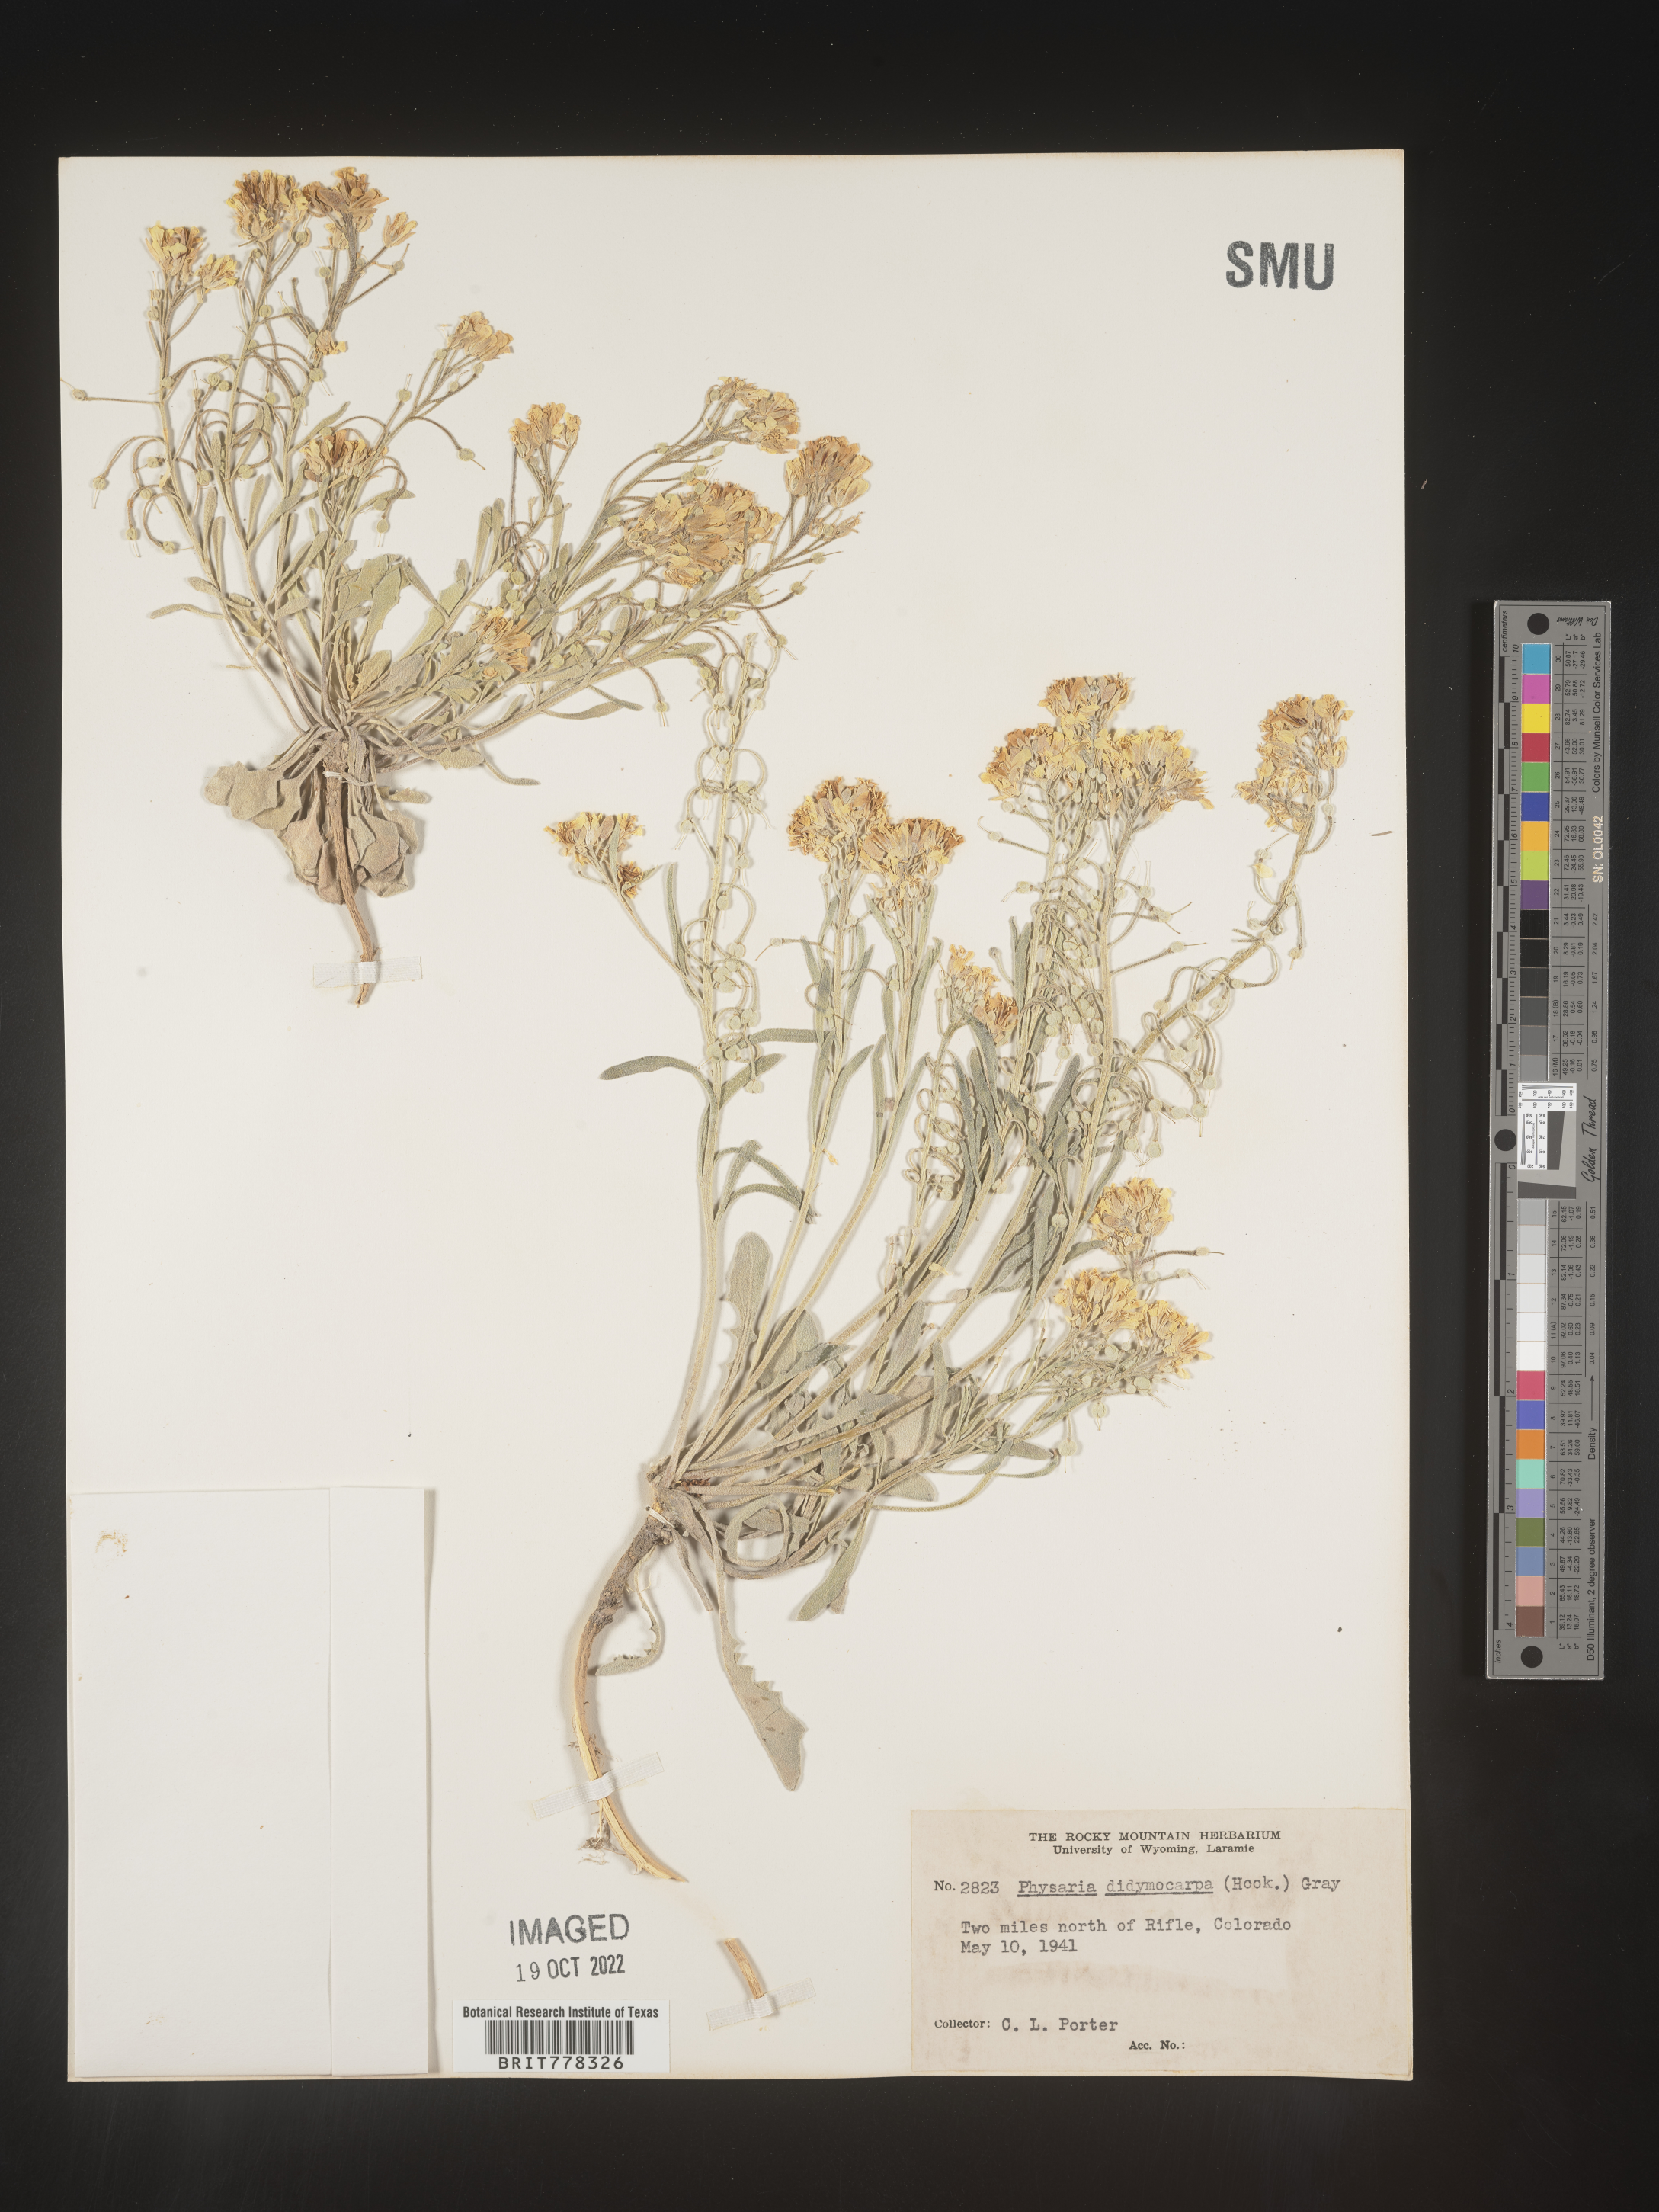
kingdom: Plantae
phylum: Tracheophyta
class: Magnoliopsida
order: Brassicales
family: Brassicaceae
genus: Physaria
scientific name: Physaria
